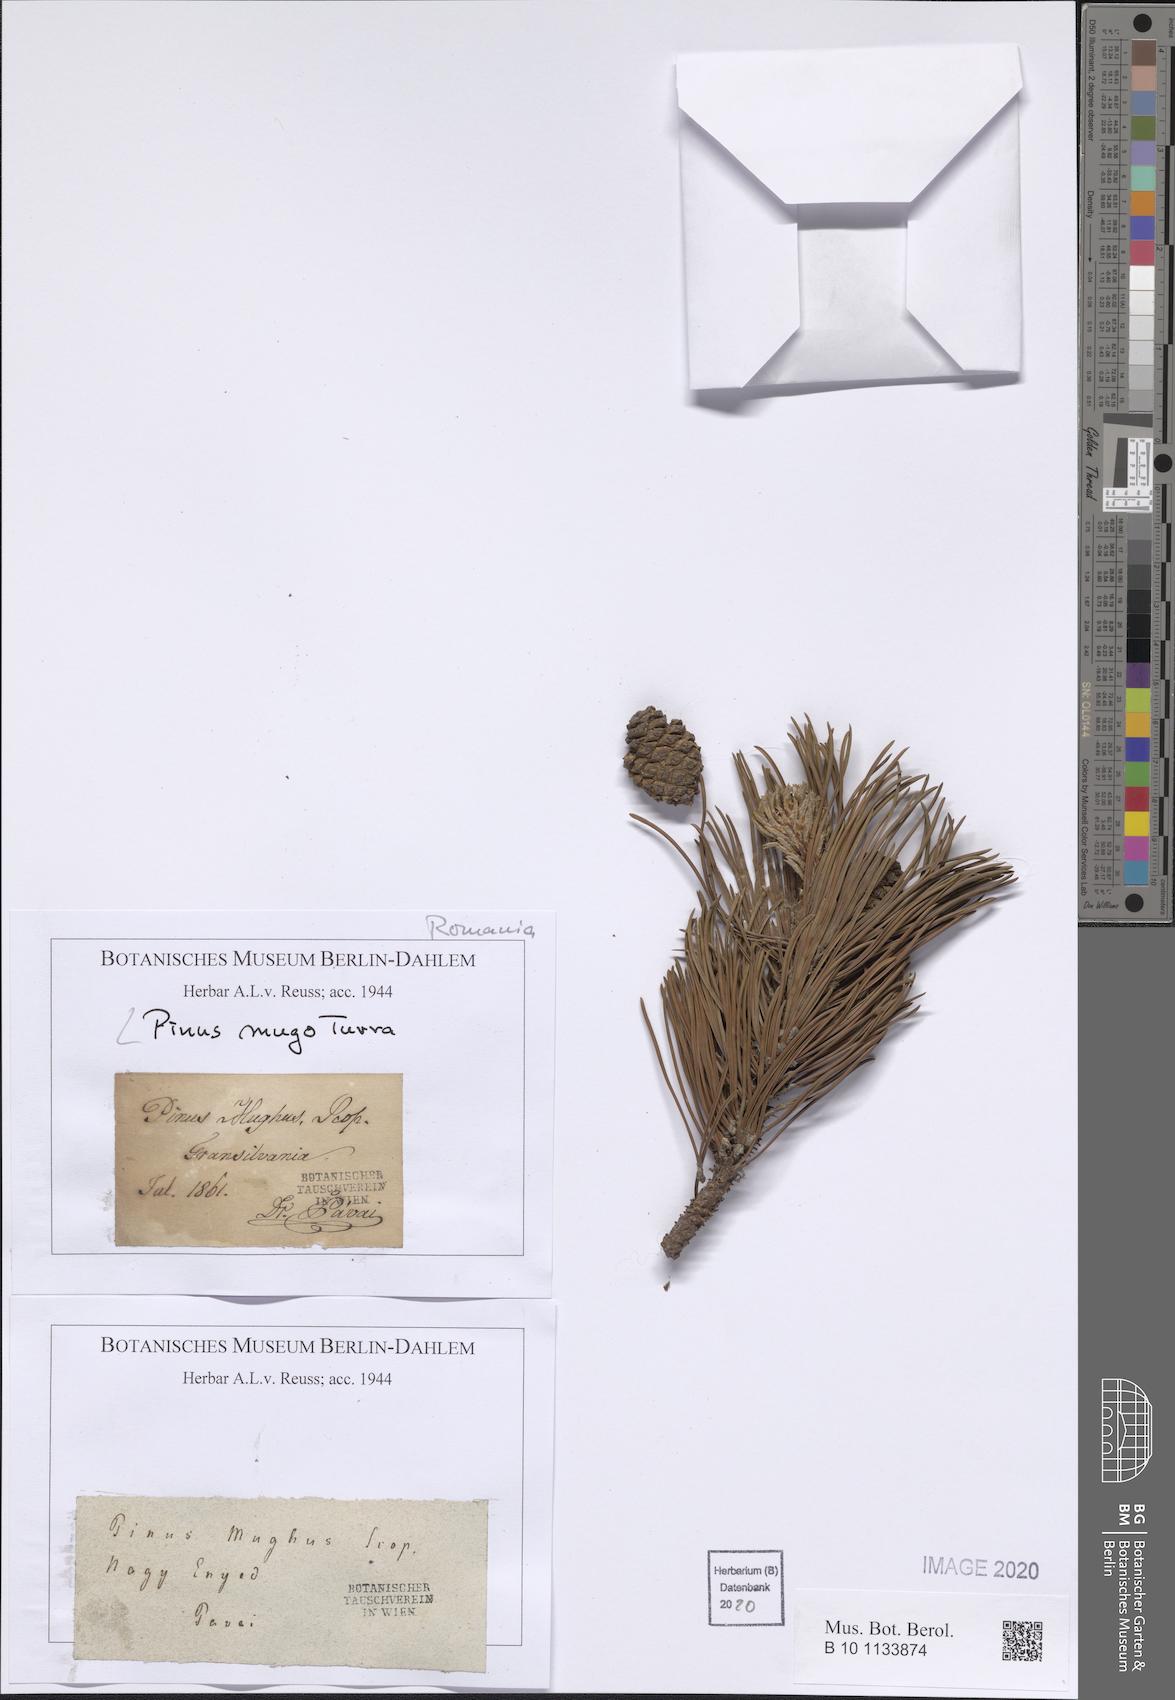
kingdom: Plantae
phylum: Tracheophyta
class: Pinopsida
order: Pinales
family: Pinaceae
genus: Pinus
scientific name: Pinus mugo
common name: Mugo pine
